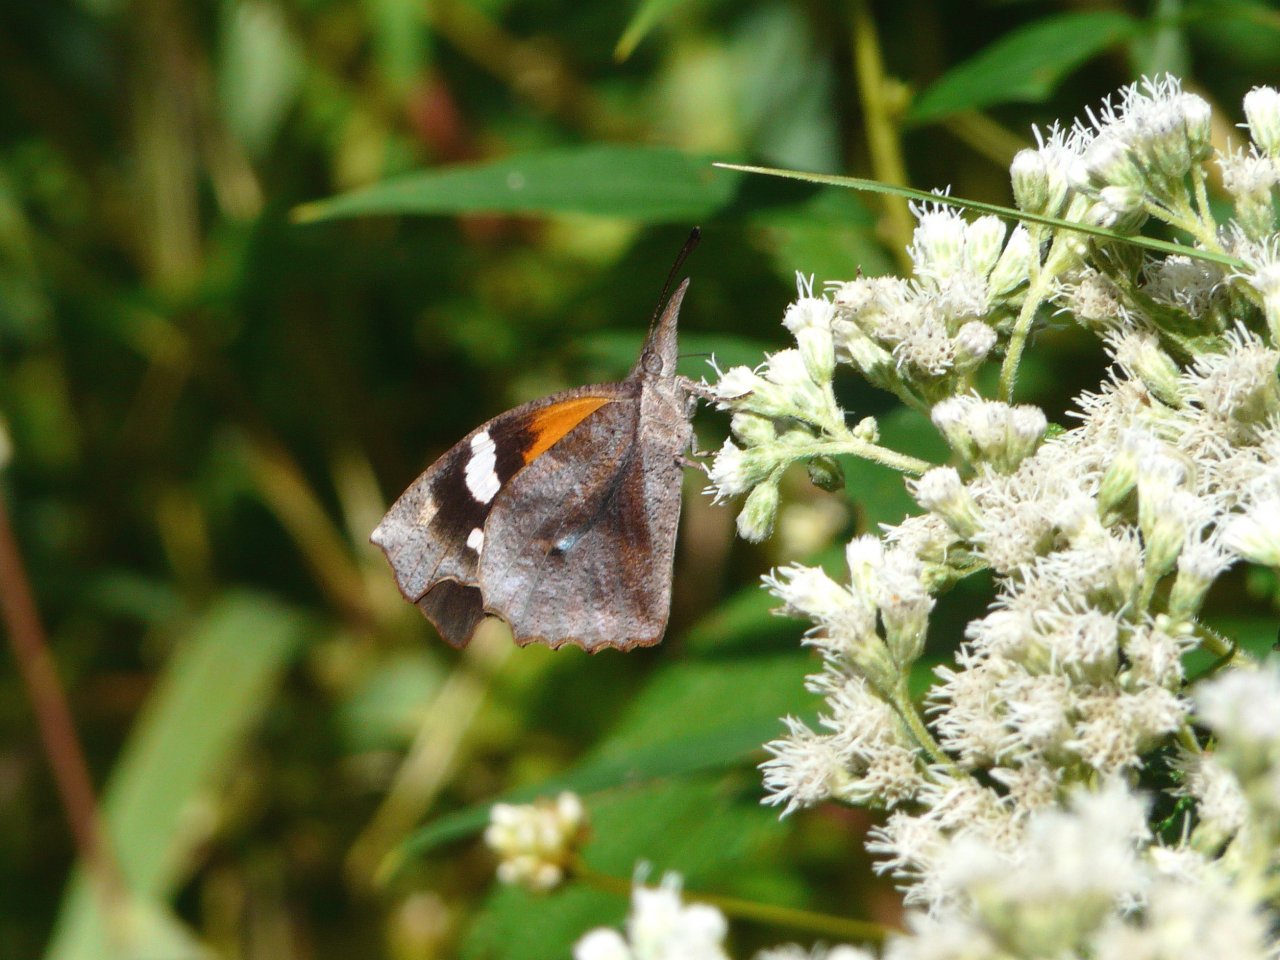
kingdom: Animalia
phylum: Arthropoda
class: Insecta
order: Lepidoptera
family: Nymphalidae
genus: Libytheana
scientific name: Libytheana carinenta
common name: American Snout
